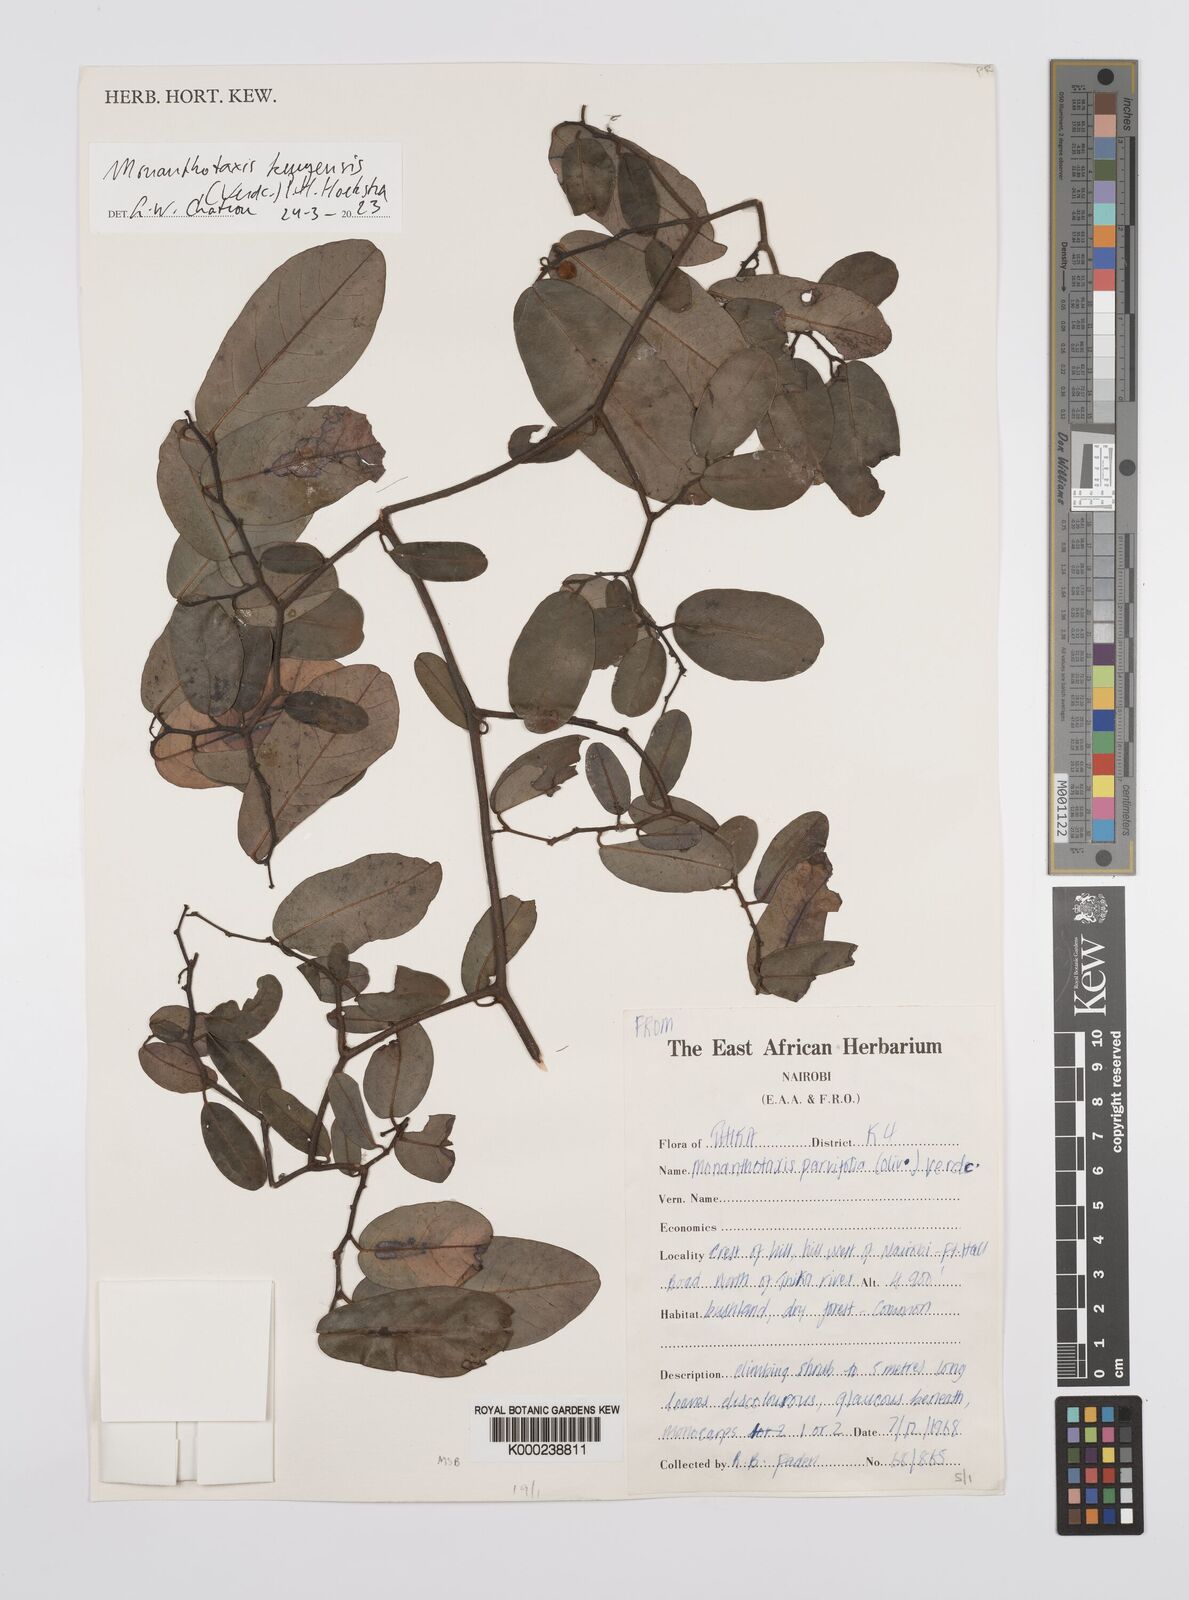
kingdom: Plantae
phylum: Tracheophyta
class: Magnoliopsida
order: Magnoliales
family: Annonaceae
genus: Monanthotaxis
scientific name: Monanthotaxis parvifolia
